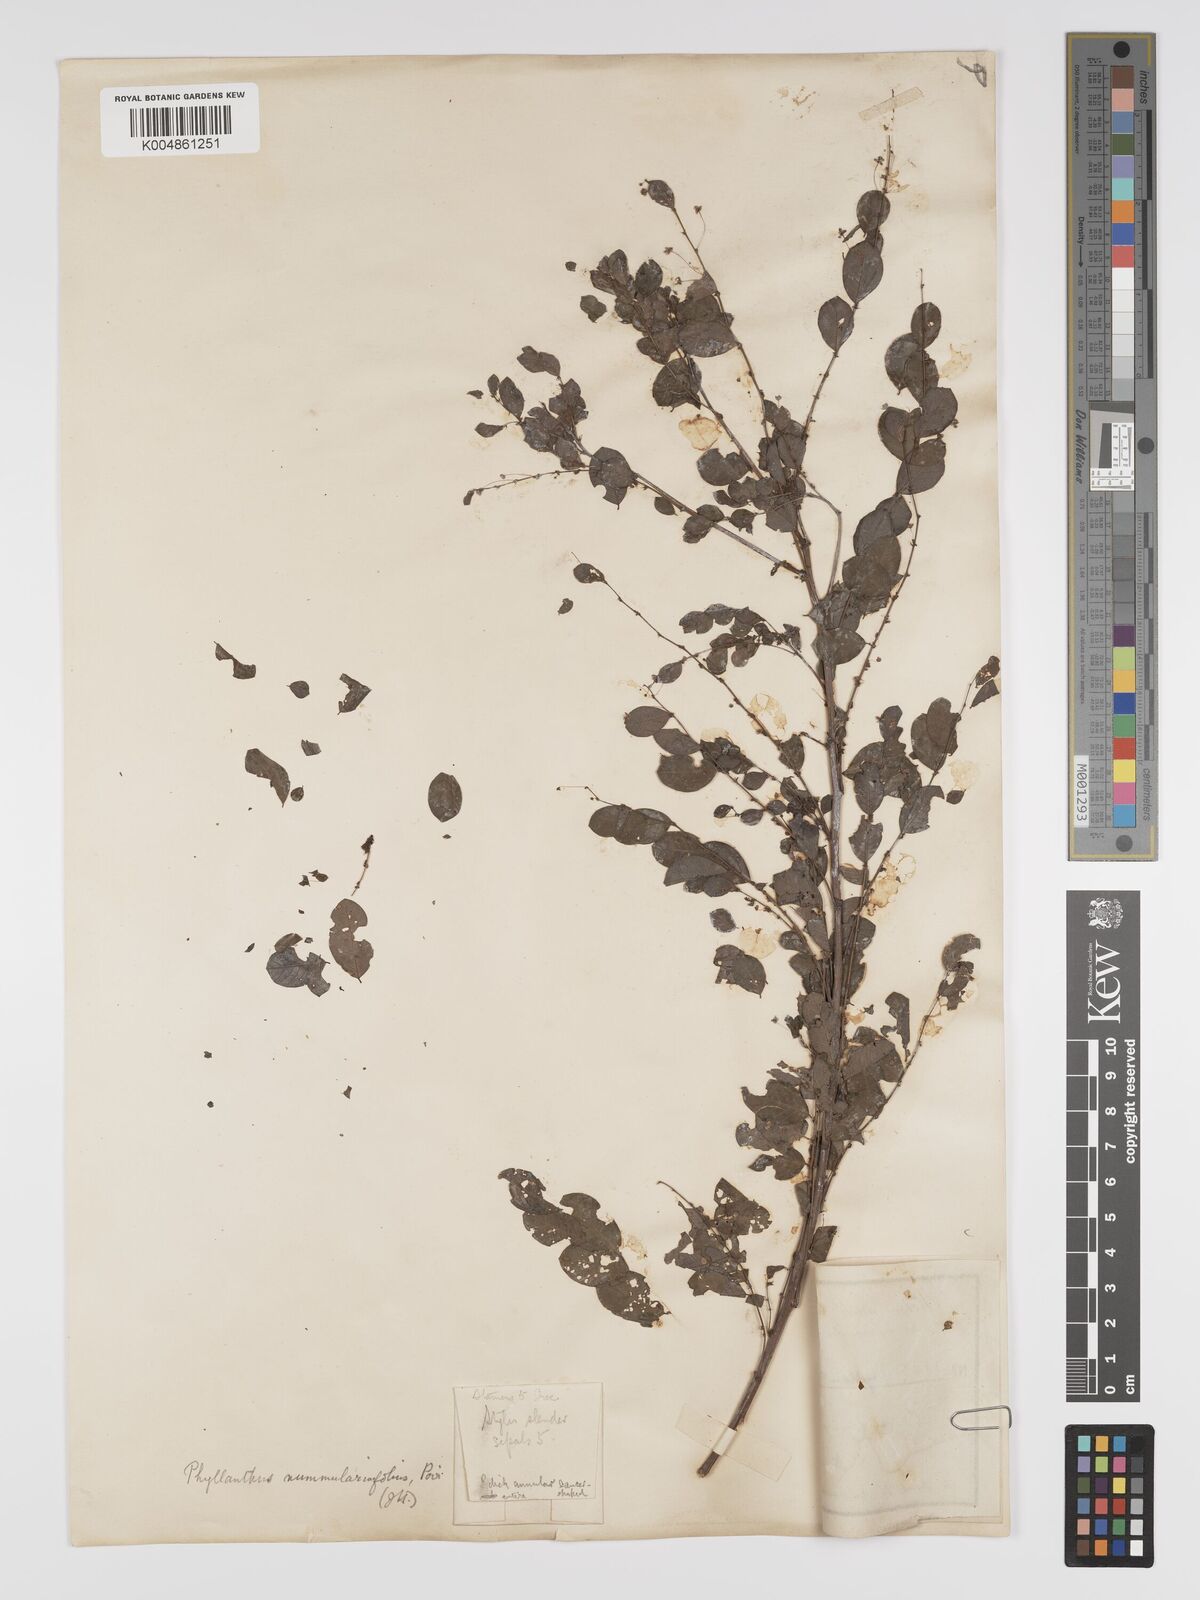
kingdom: Plantae
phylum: Tracheophyta
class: Magnoliopsida
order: Malpighiales
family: Phyllanthaceae
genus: Phyllanthus
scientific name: Phyllanthus nummulariifolius
